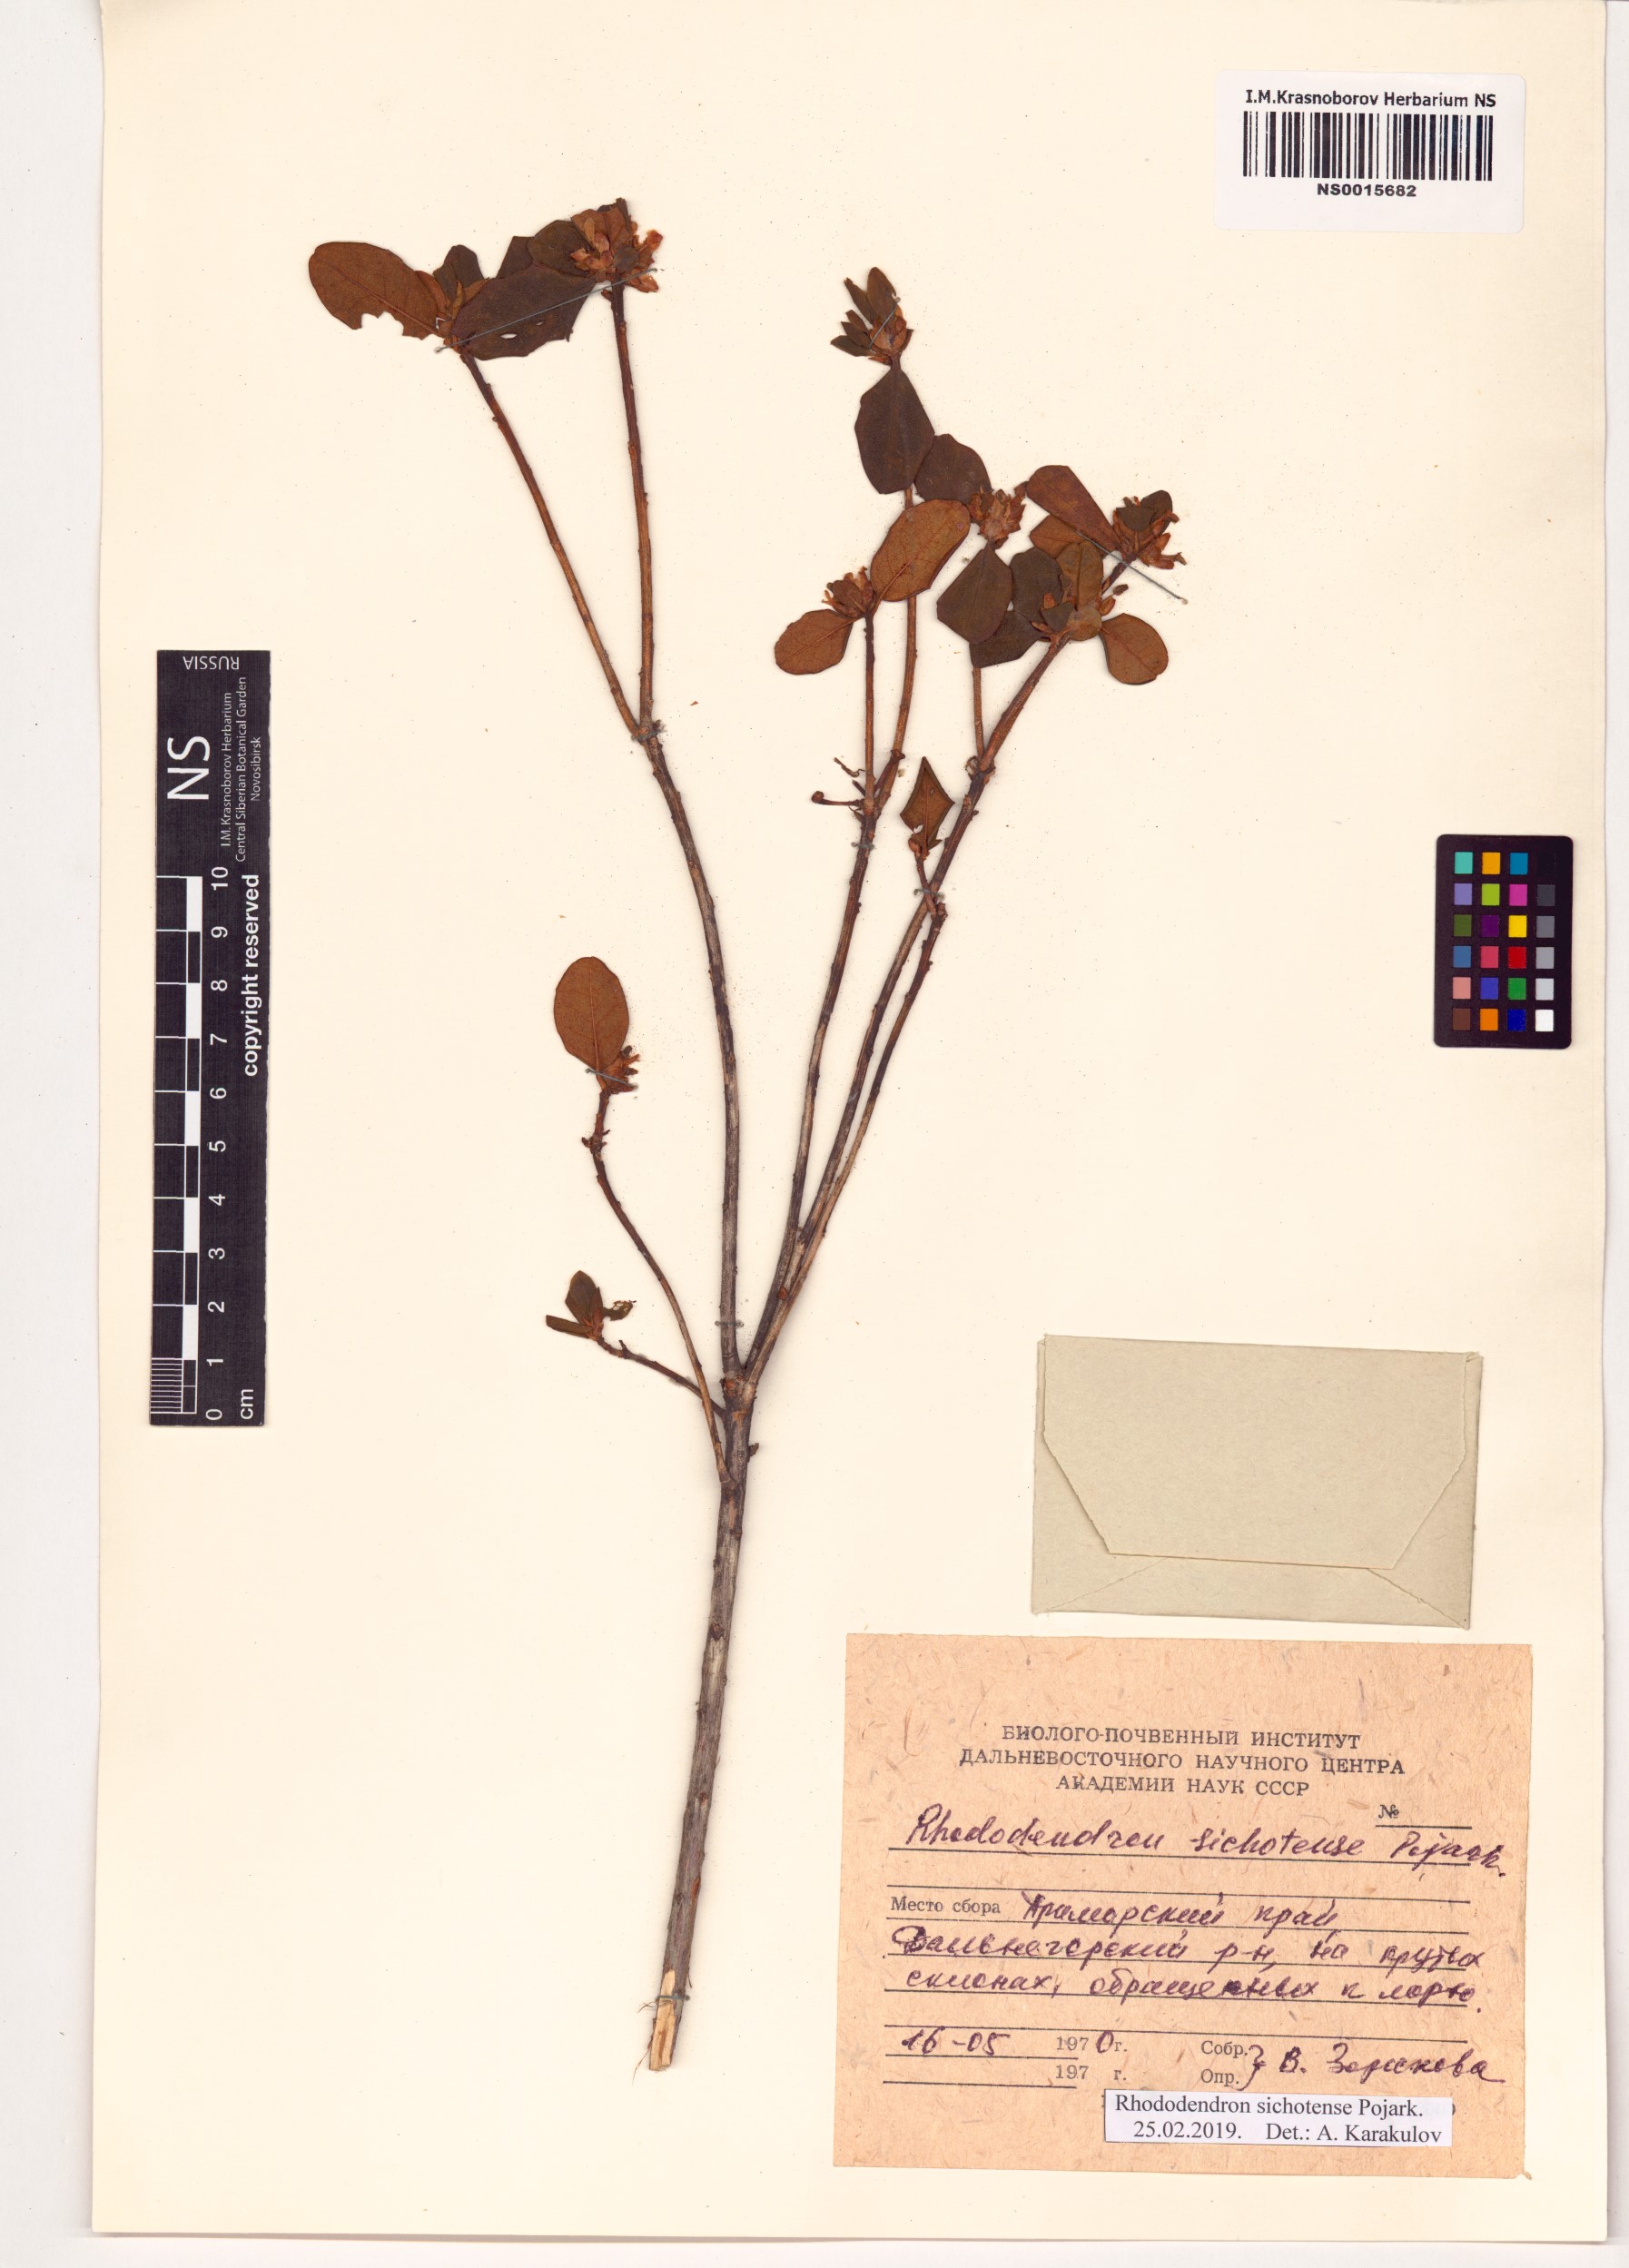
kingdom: Plantae
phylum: Tracheophyta
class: Magnoliopsida
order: Ericales
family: Ericaceae
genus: Rhododendron
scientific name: Rhododendron sichotense
